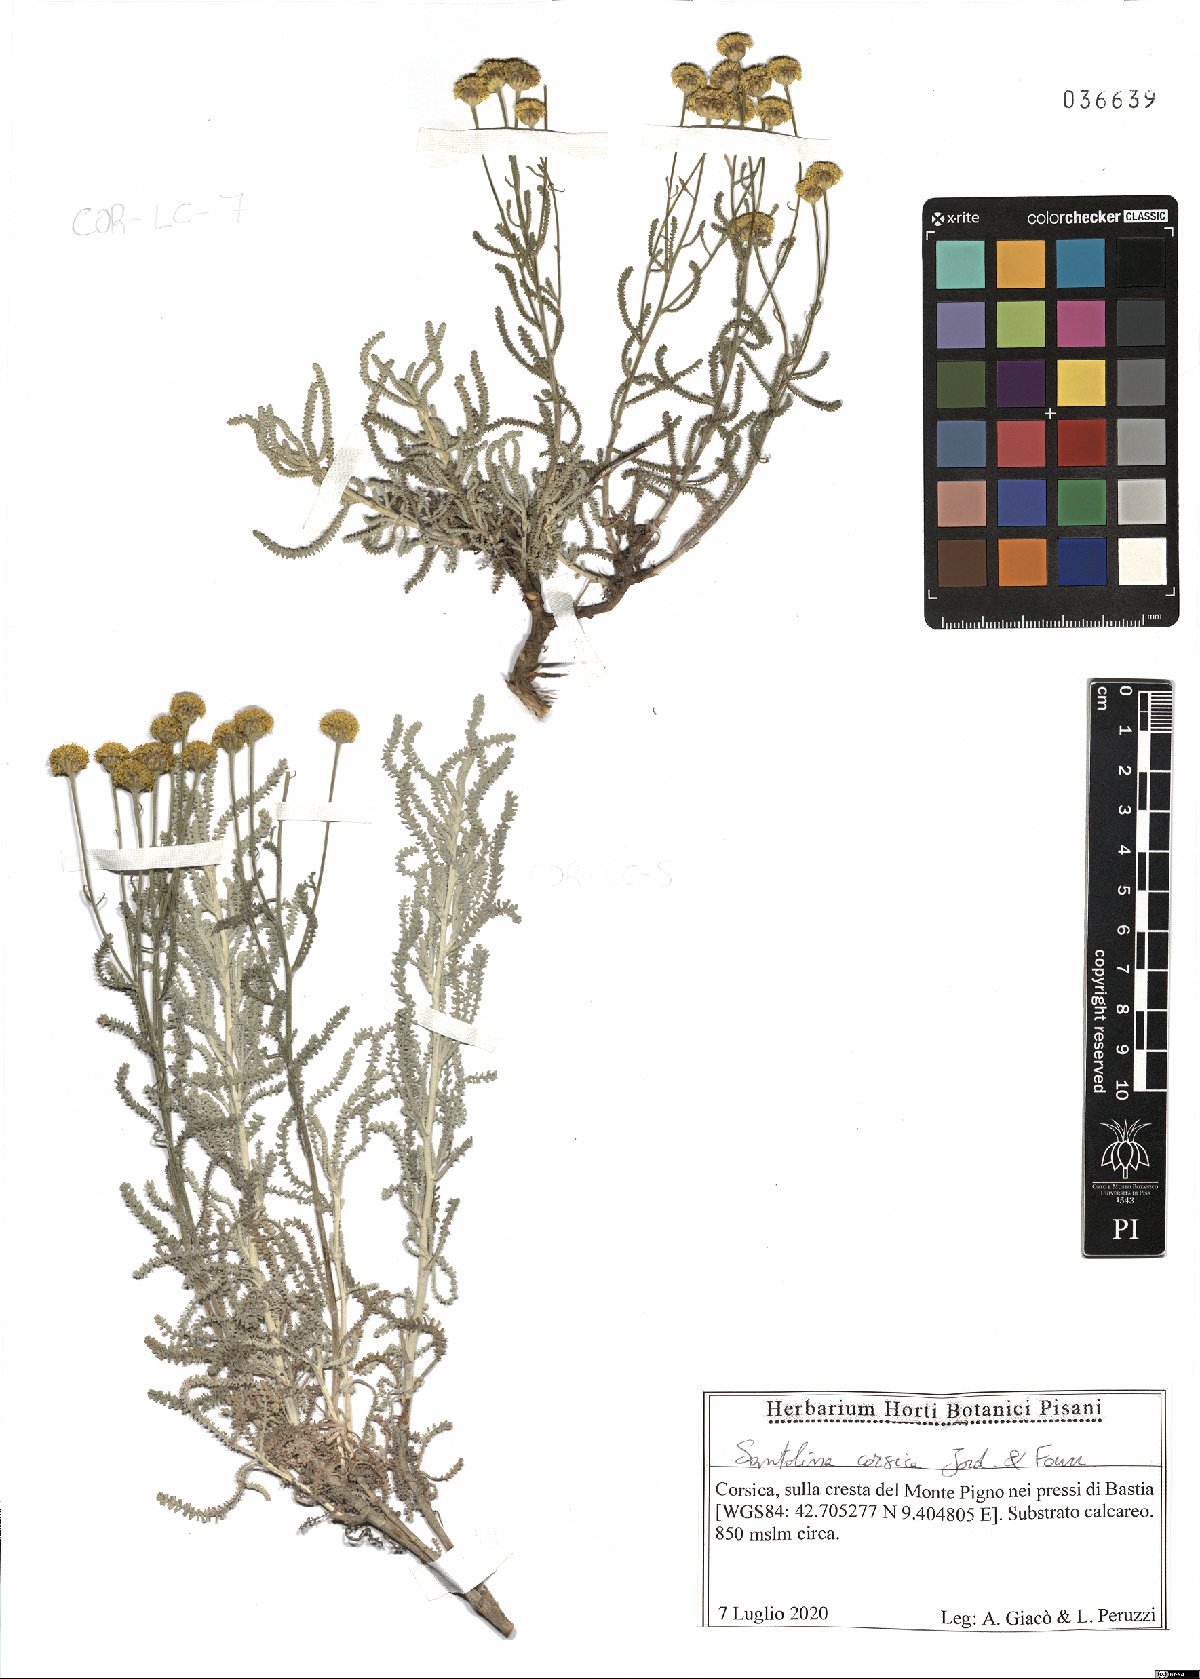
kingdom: Plantae
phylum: Tracheophyta
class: Magnoliopsida
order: Asterales
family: Asteraceae
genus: Santolina
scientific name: Santolina corsica
